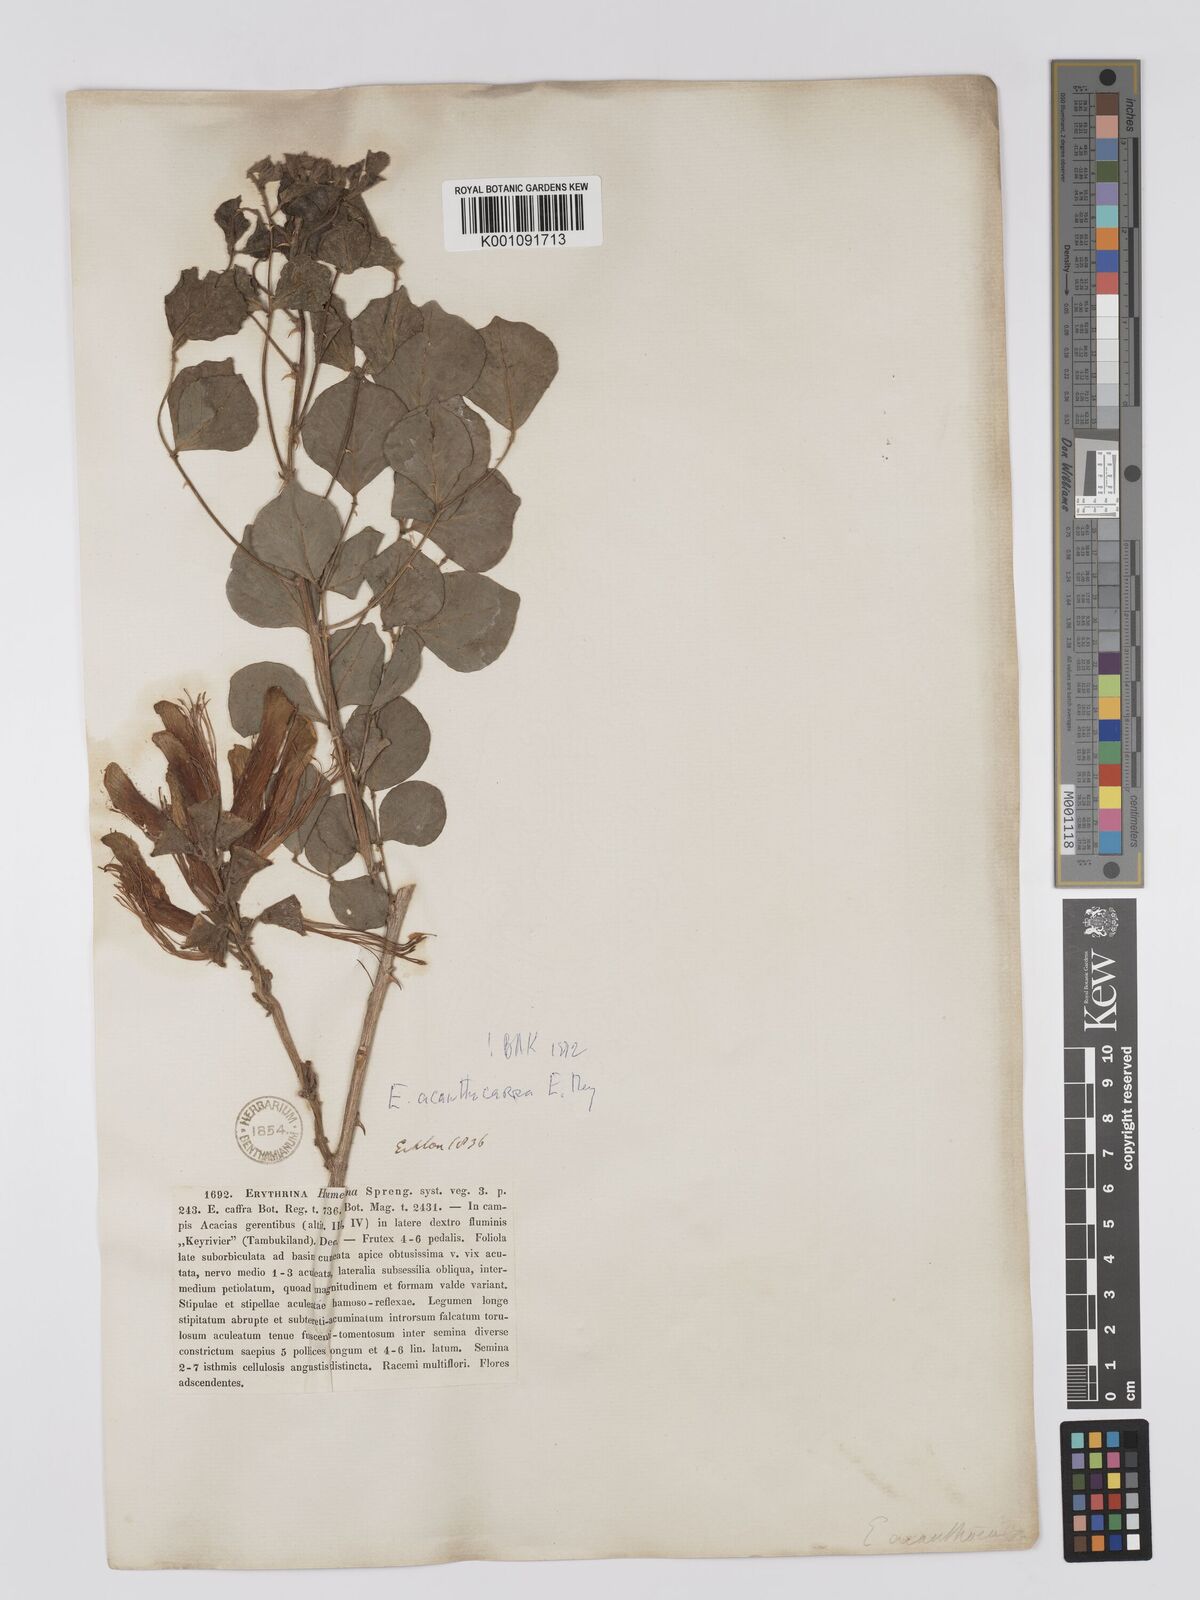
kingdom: Plantae
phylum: Tracheophyta
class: Magnoliopsida
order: Fabales
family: Fabaceae
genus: Erythrina
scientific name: Erythrina acanthocarpa
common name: Thorny coraltree
